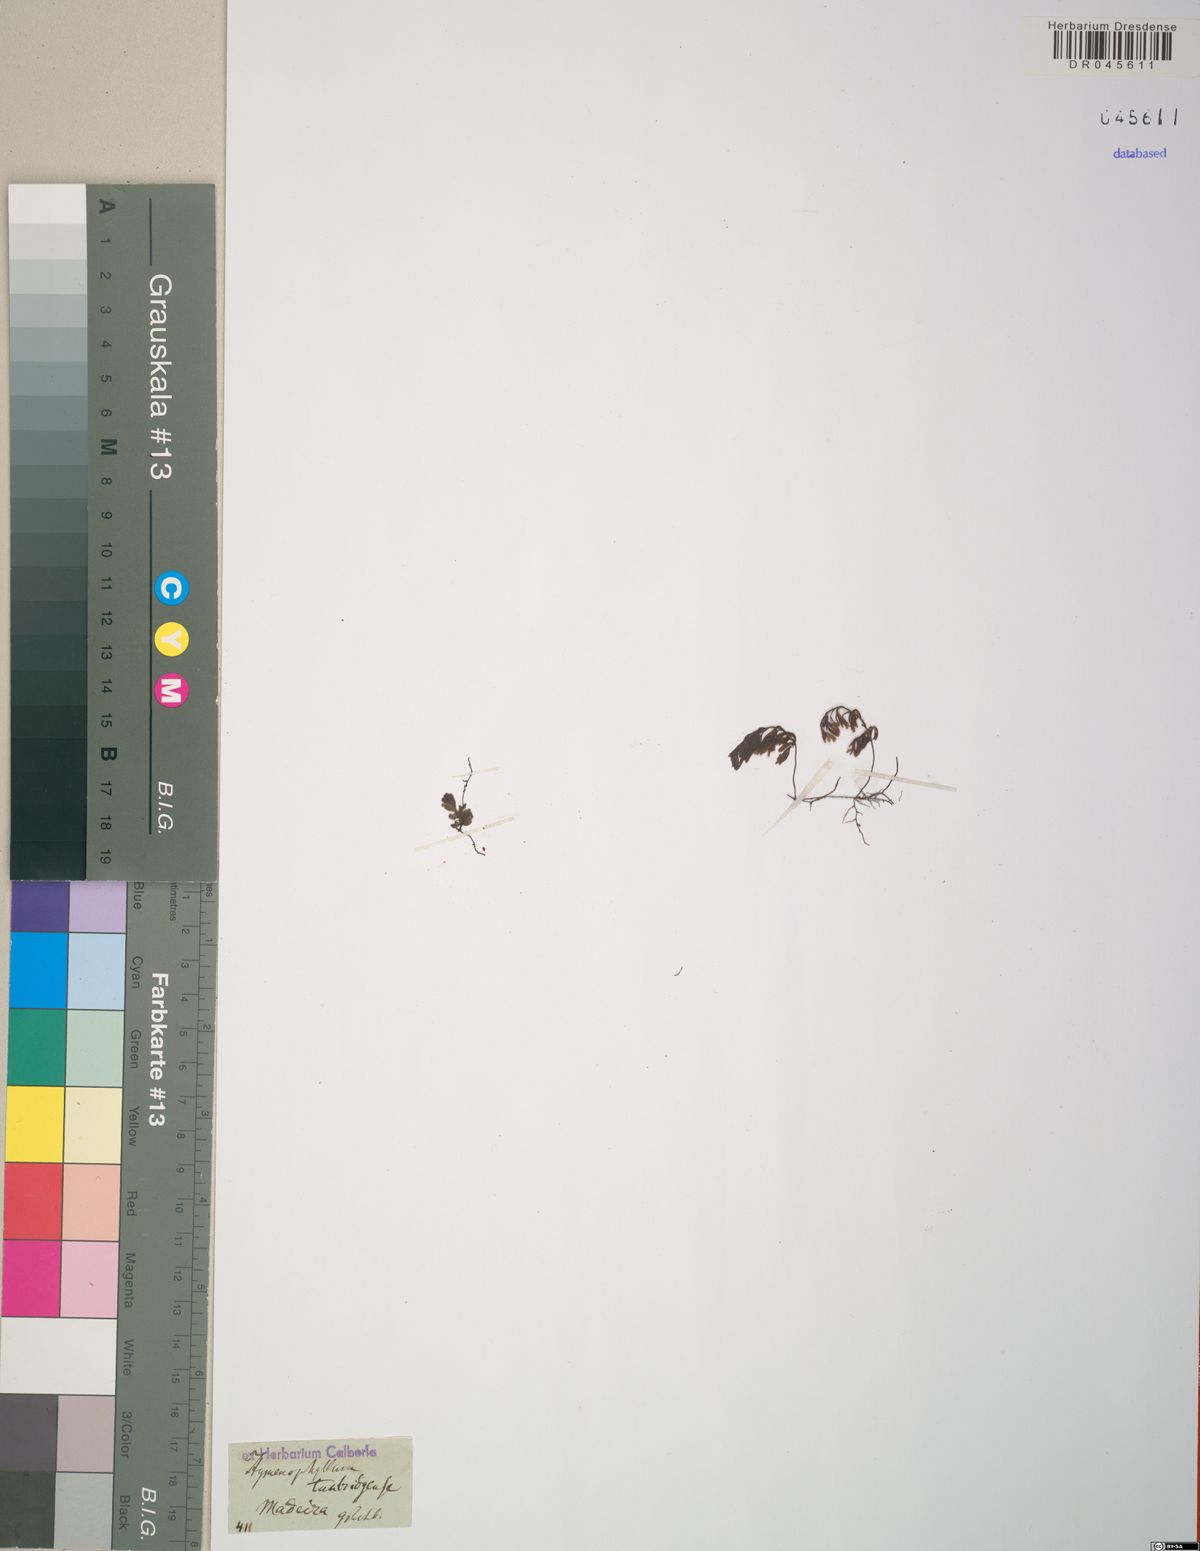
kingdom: Plantae
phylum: Tracheophyta
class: Polypodiopsida
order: Hymenophyllales
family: Hymenophyllaceae
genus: Hymenophyllum
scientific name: Hymenophyllum tunbrigense
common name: Tunbridge filmy fern
